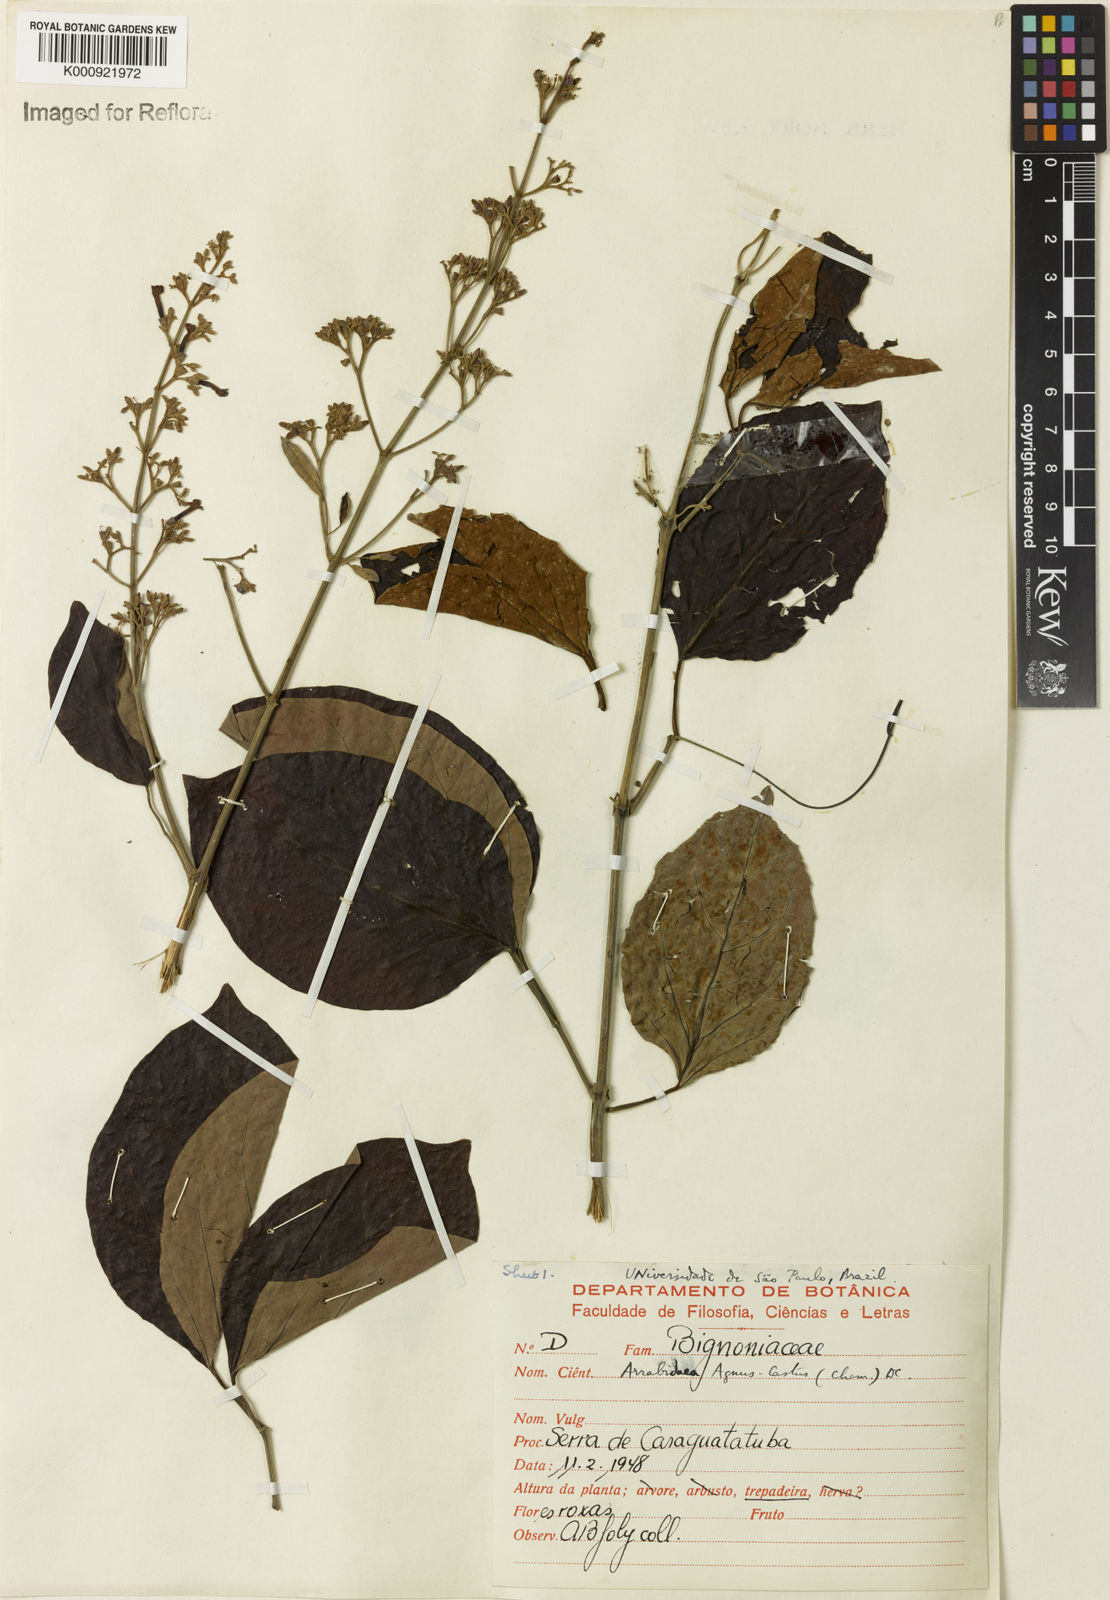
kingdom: Plantae
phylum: Tracheophyta
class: Magnoliopsida
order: Lamiales
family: Bignoniaceae
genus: Fridericia
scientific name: Fridericia rego
